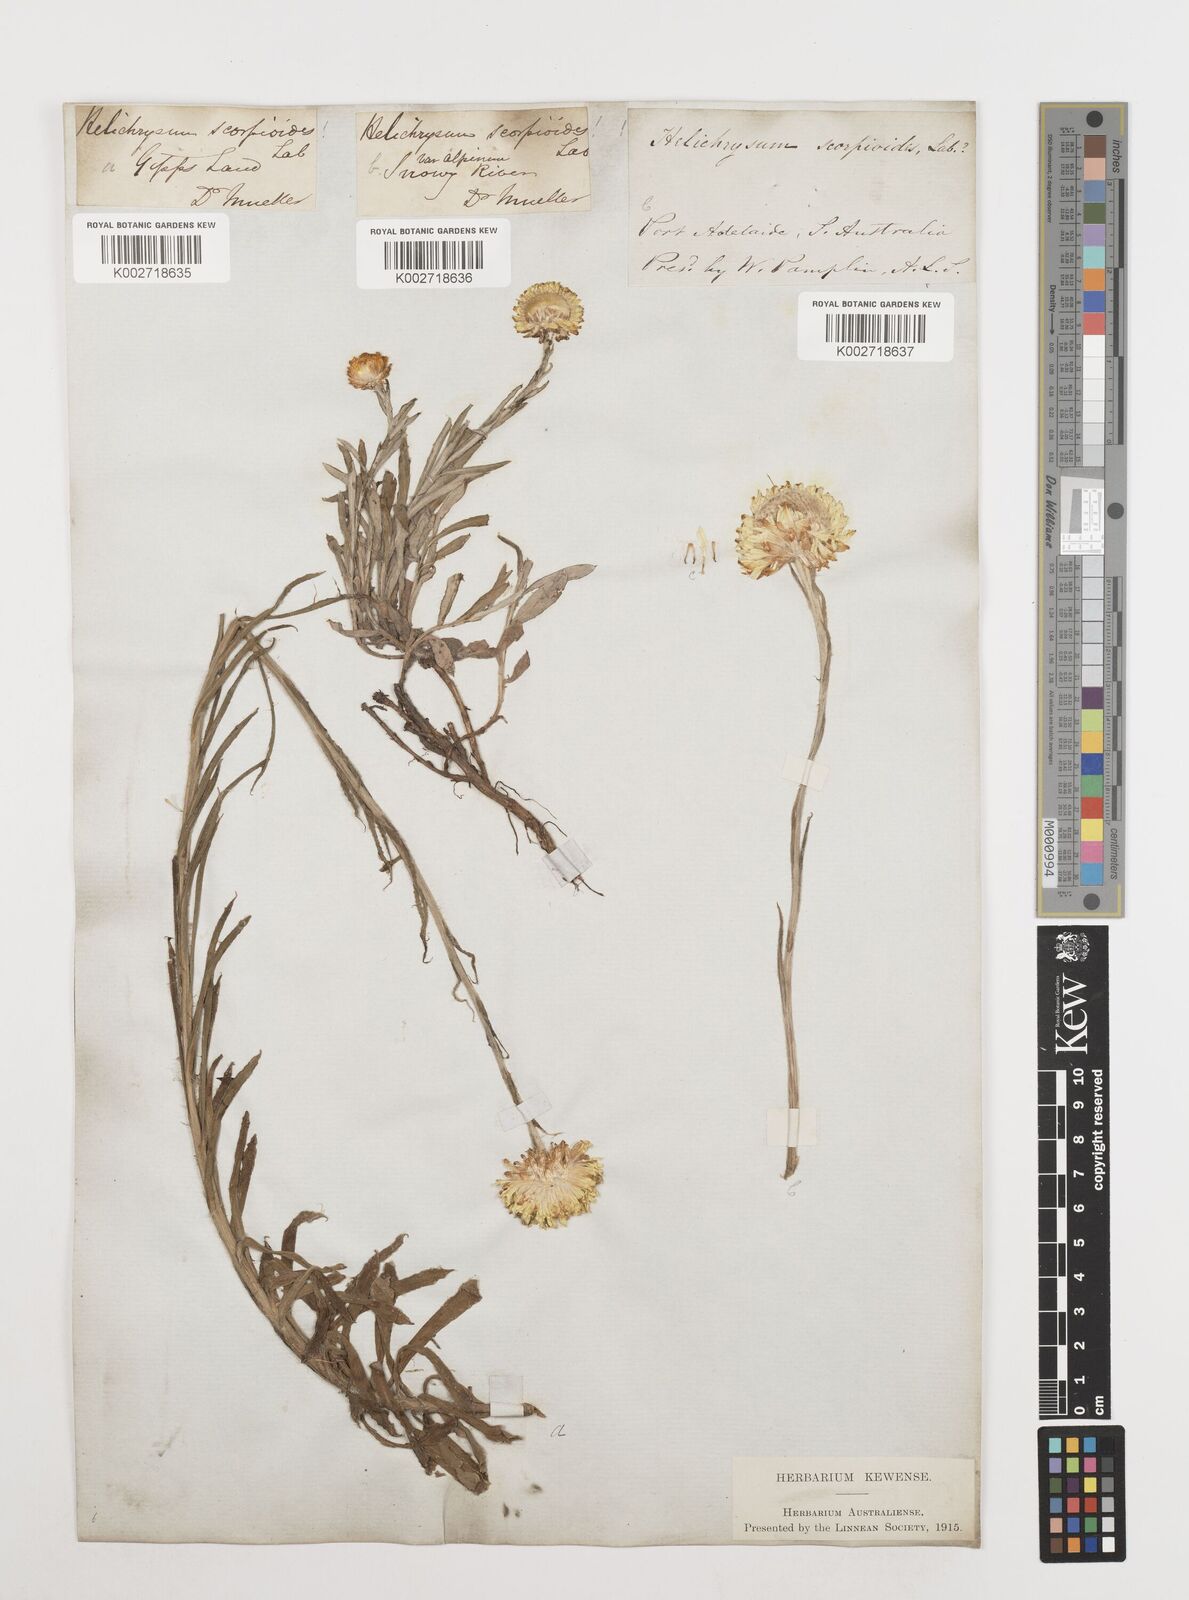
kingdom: Plantae
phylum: Tracheophyta
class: Magnoliopsida
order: Asterales
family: Asteraceae
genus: Coronidium
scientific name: Coronidium scorpioides
